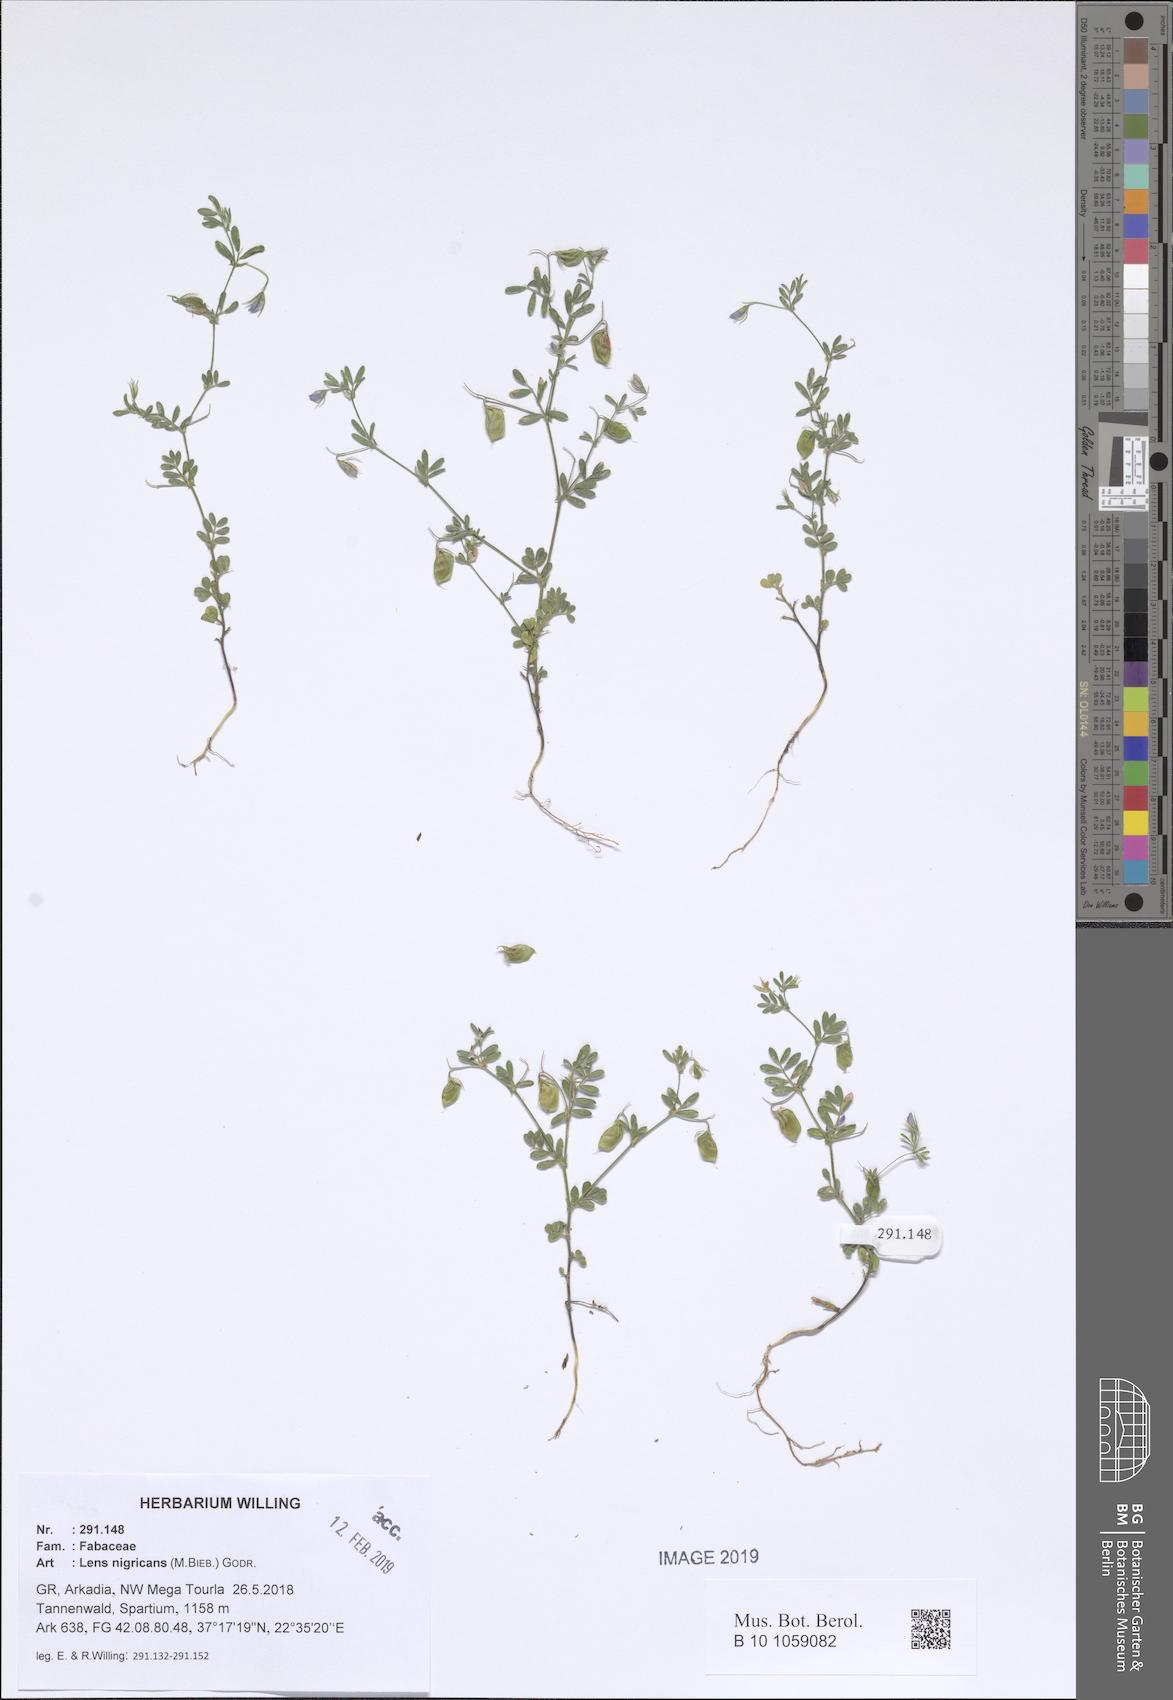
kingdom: Plantae
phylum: Tracheophyta
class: Magnoliopsida
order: Fabales
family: Fabaceae
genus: Vicia
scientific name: Vicia lentoides
